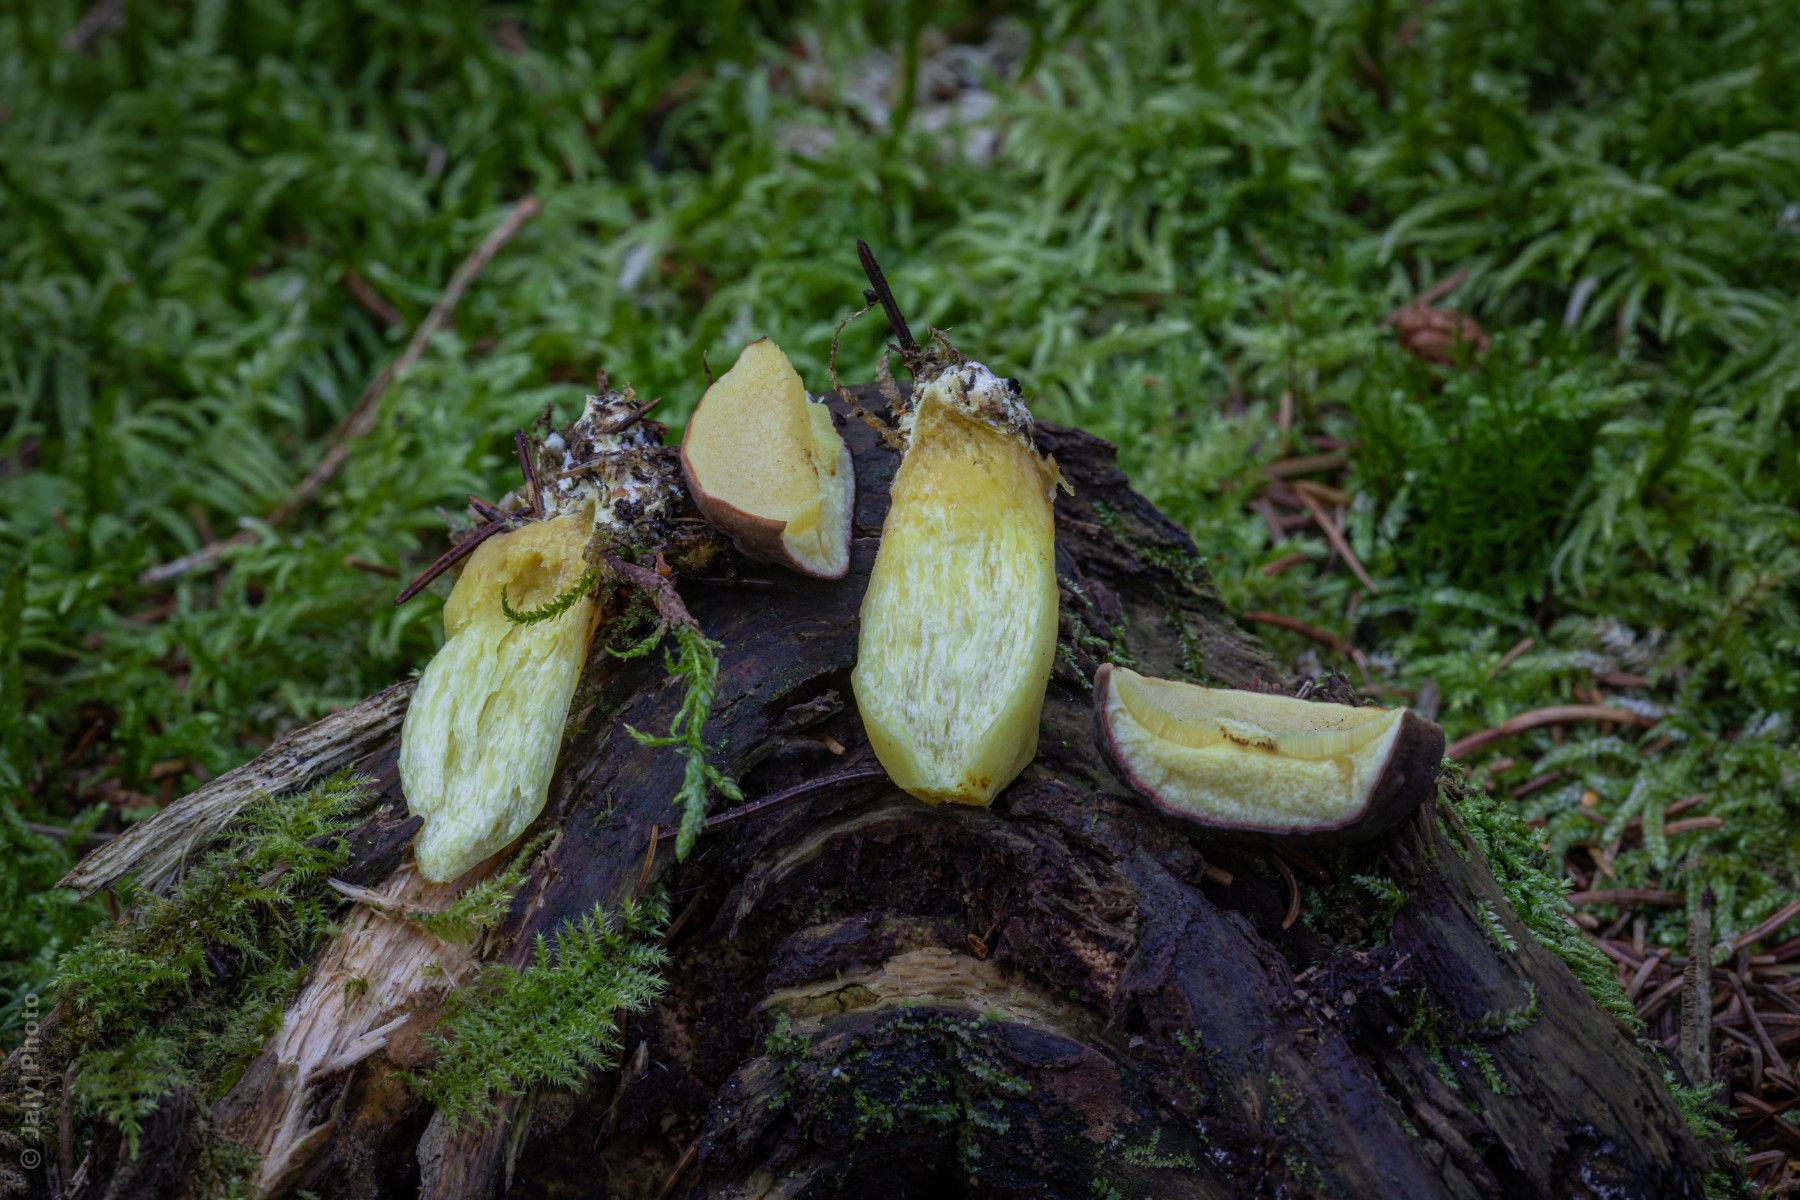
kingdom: Fungi
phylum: Basidiomycota
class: Agaricomycetes
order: Boletales
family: Boletaceae
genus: Xerocomellus
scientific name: Xerocomellus pruinatus
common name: dugget rørhat
